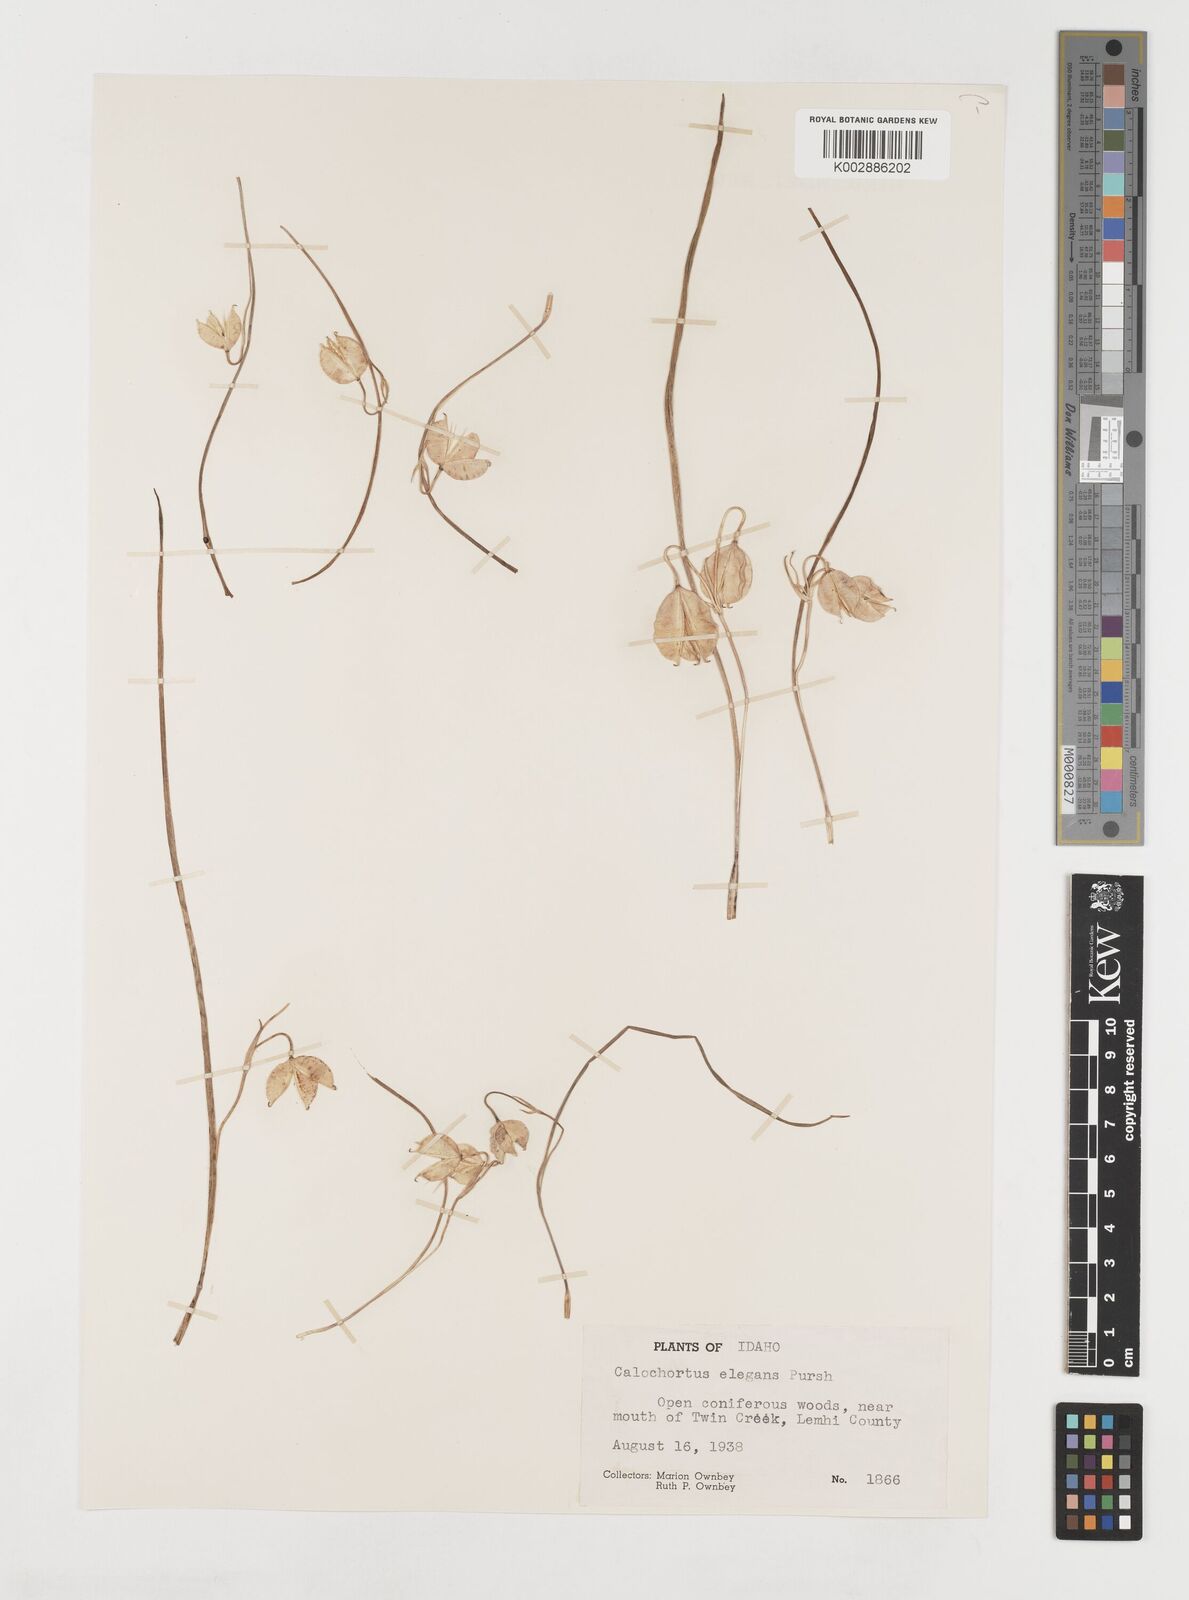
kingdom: Plantae
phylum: Tracheophyta
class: Liliopsida
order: Liliales
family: Liliaceae
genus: Calochortus
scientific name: Calochortus elegans
